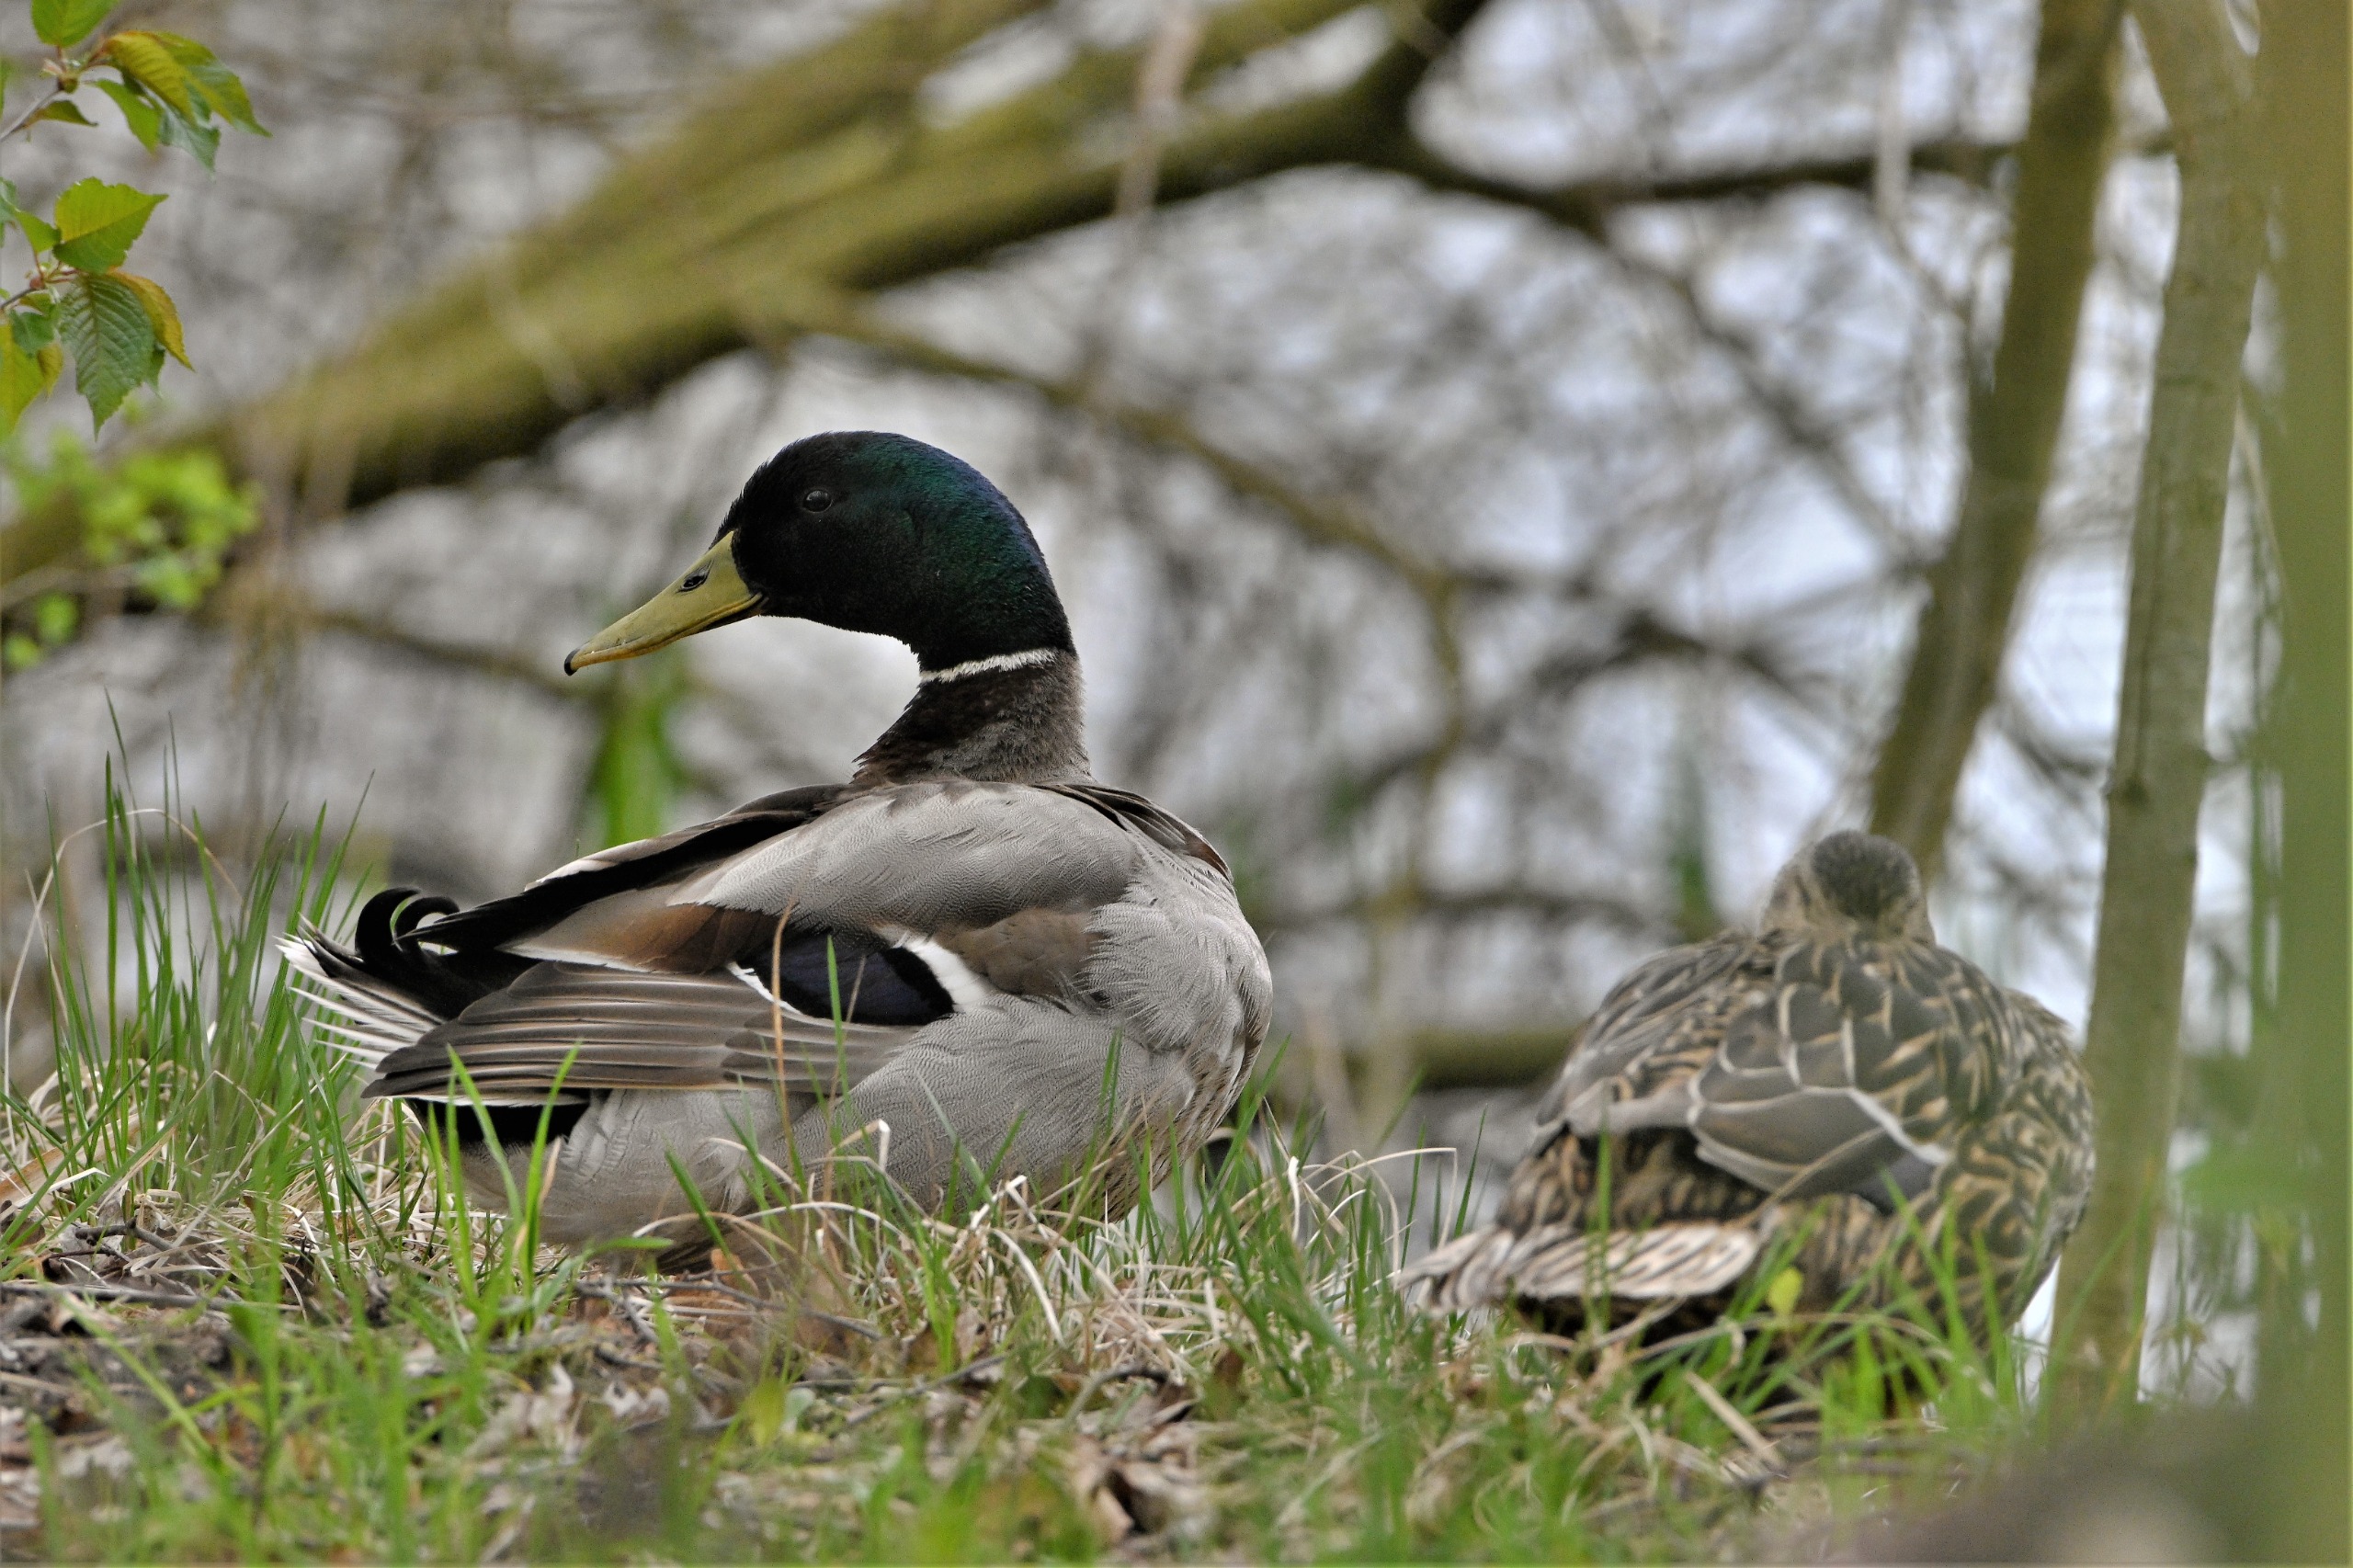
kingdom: Animalia
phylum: Chordata
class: Aves
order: Anseriformes
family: Anatidae
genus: Anas
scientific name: Anas platyrhynchos
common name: Gråand
